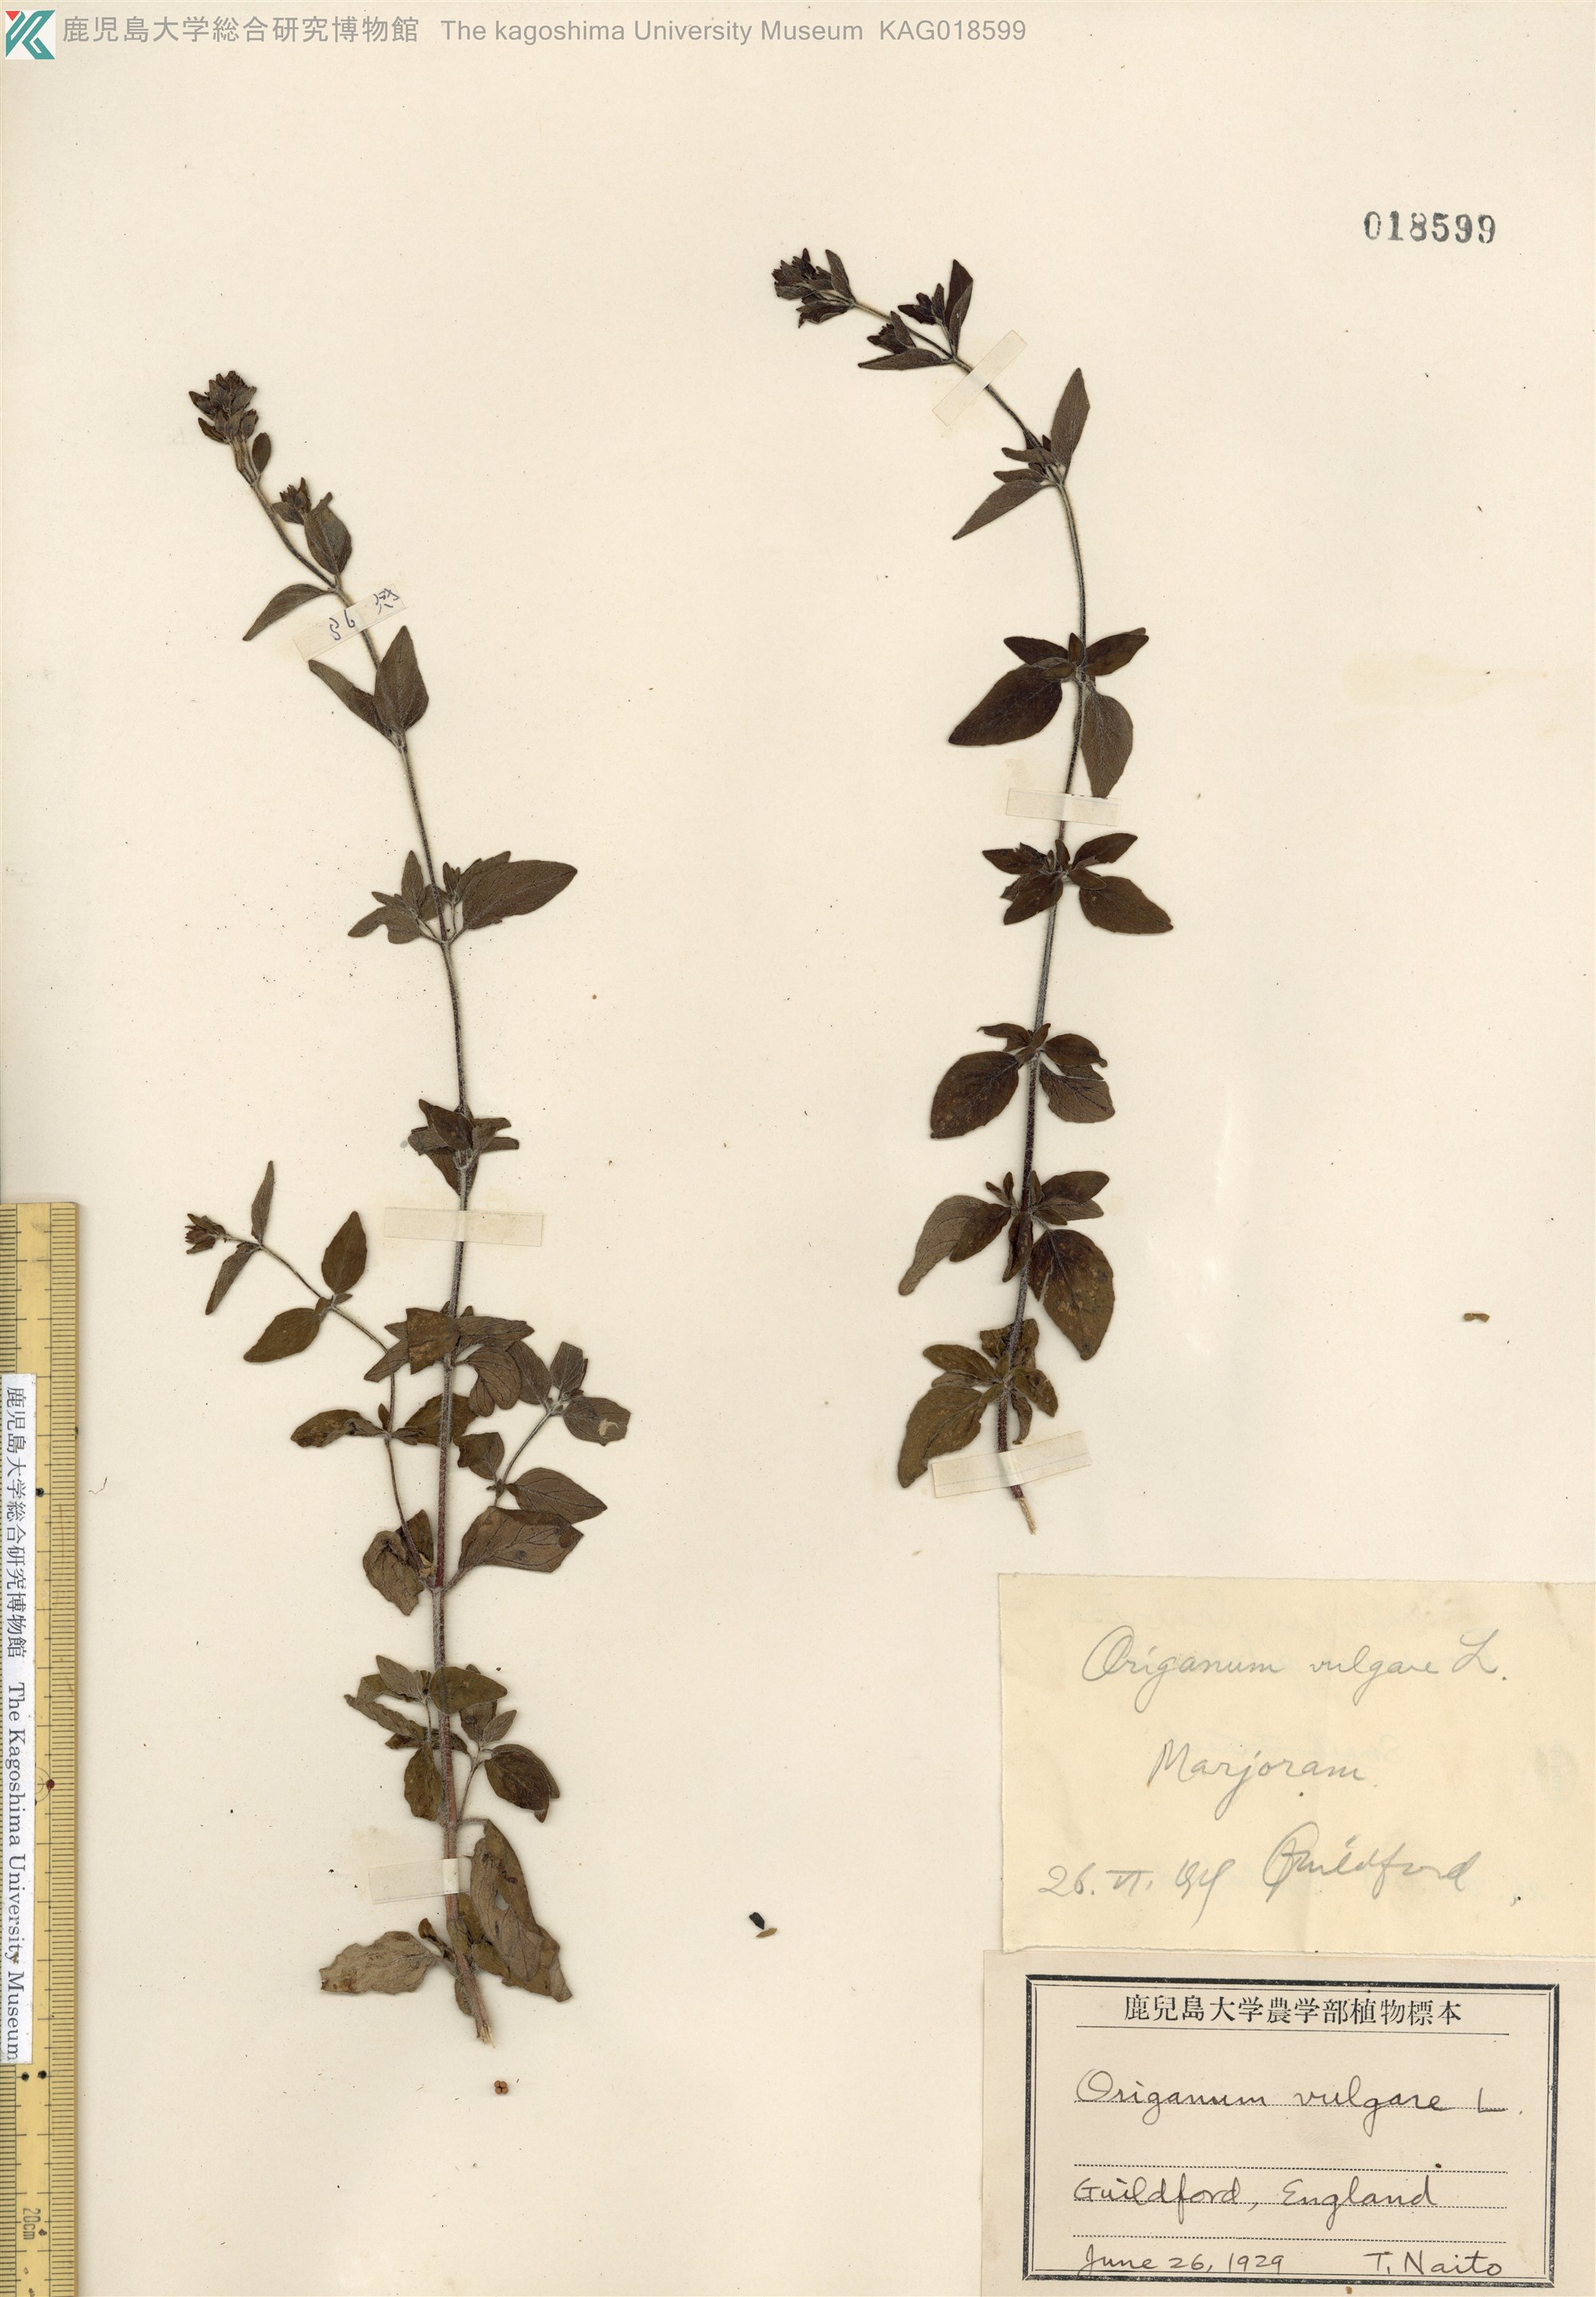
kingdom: Plantae
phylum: Tracheophyta
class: Magnoliopsida
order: Lamiales
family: Lamiaceae
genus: Origanum
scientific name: Origanum vulgare
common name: Wild marjoram
